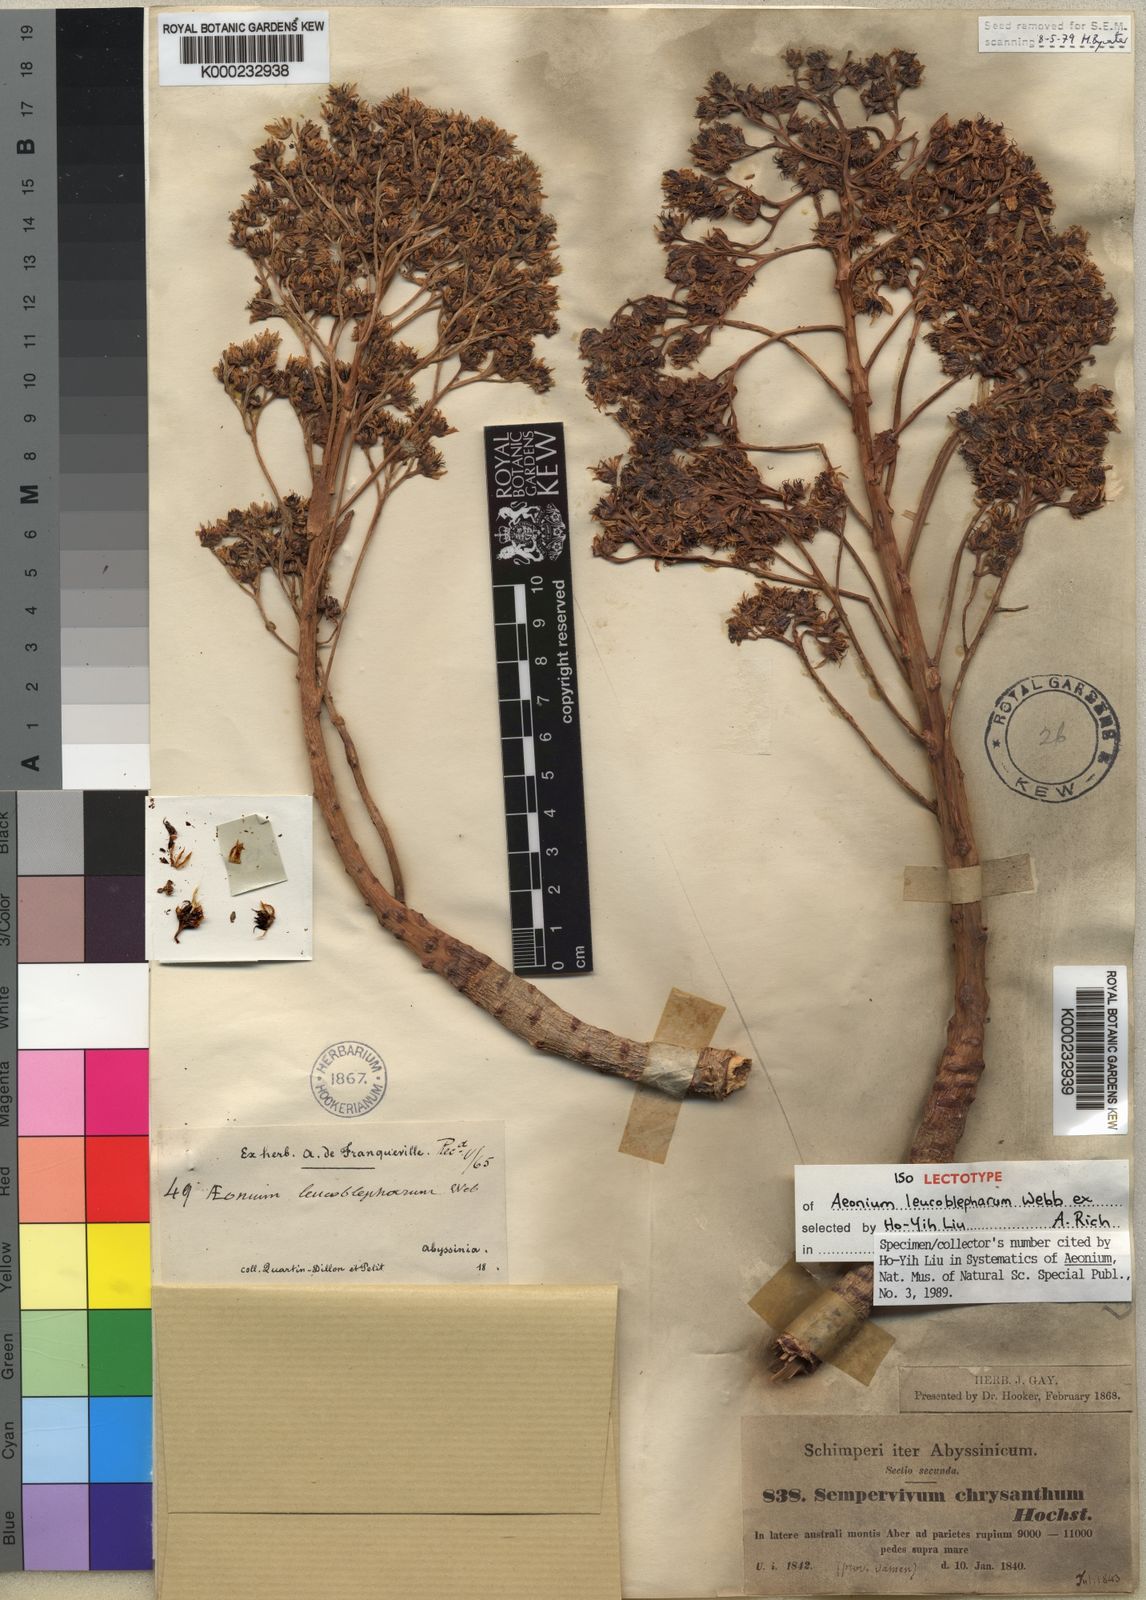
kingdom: Plantae
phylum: Tracheophyta
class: Magnoliopsida
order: Saxifragales
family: Crassulaceae
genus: Aeonium
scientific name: Aeonium leucoblepharum
